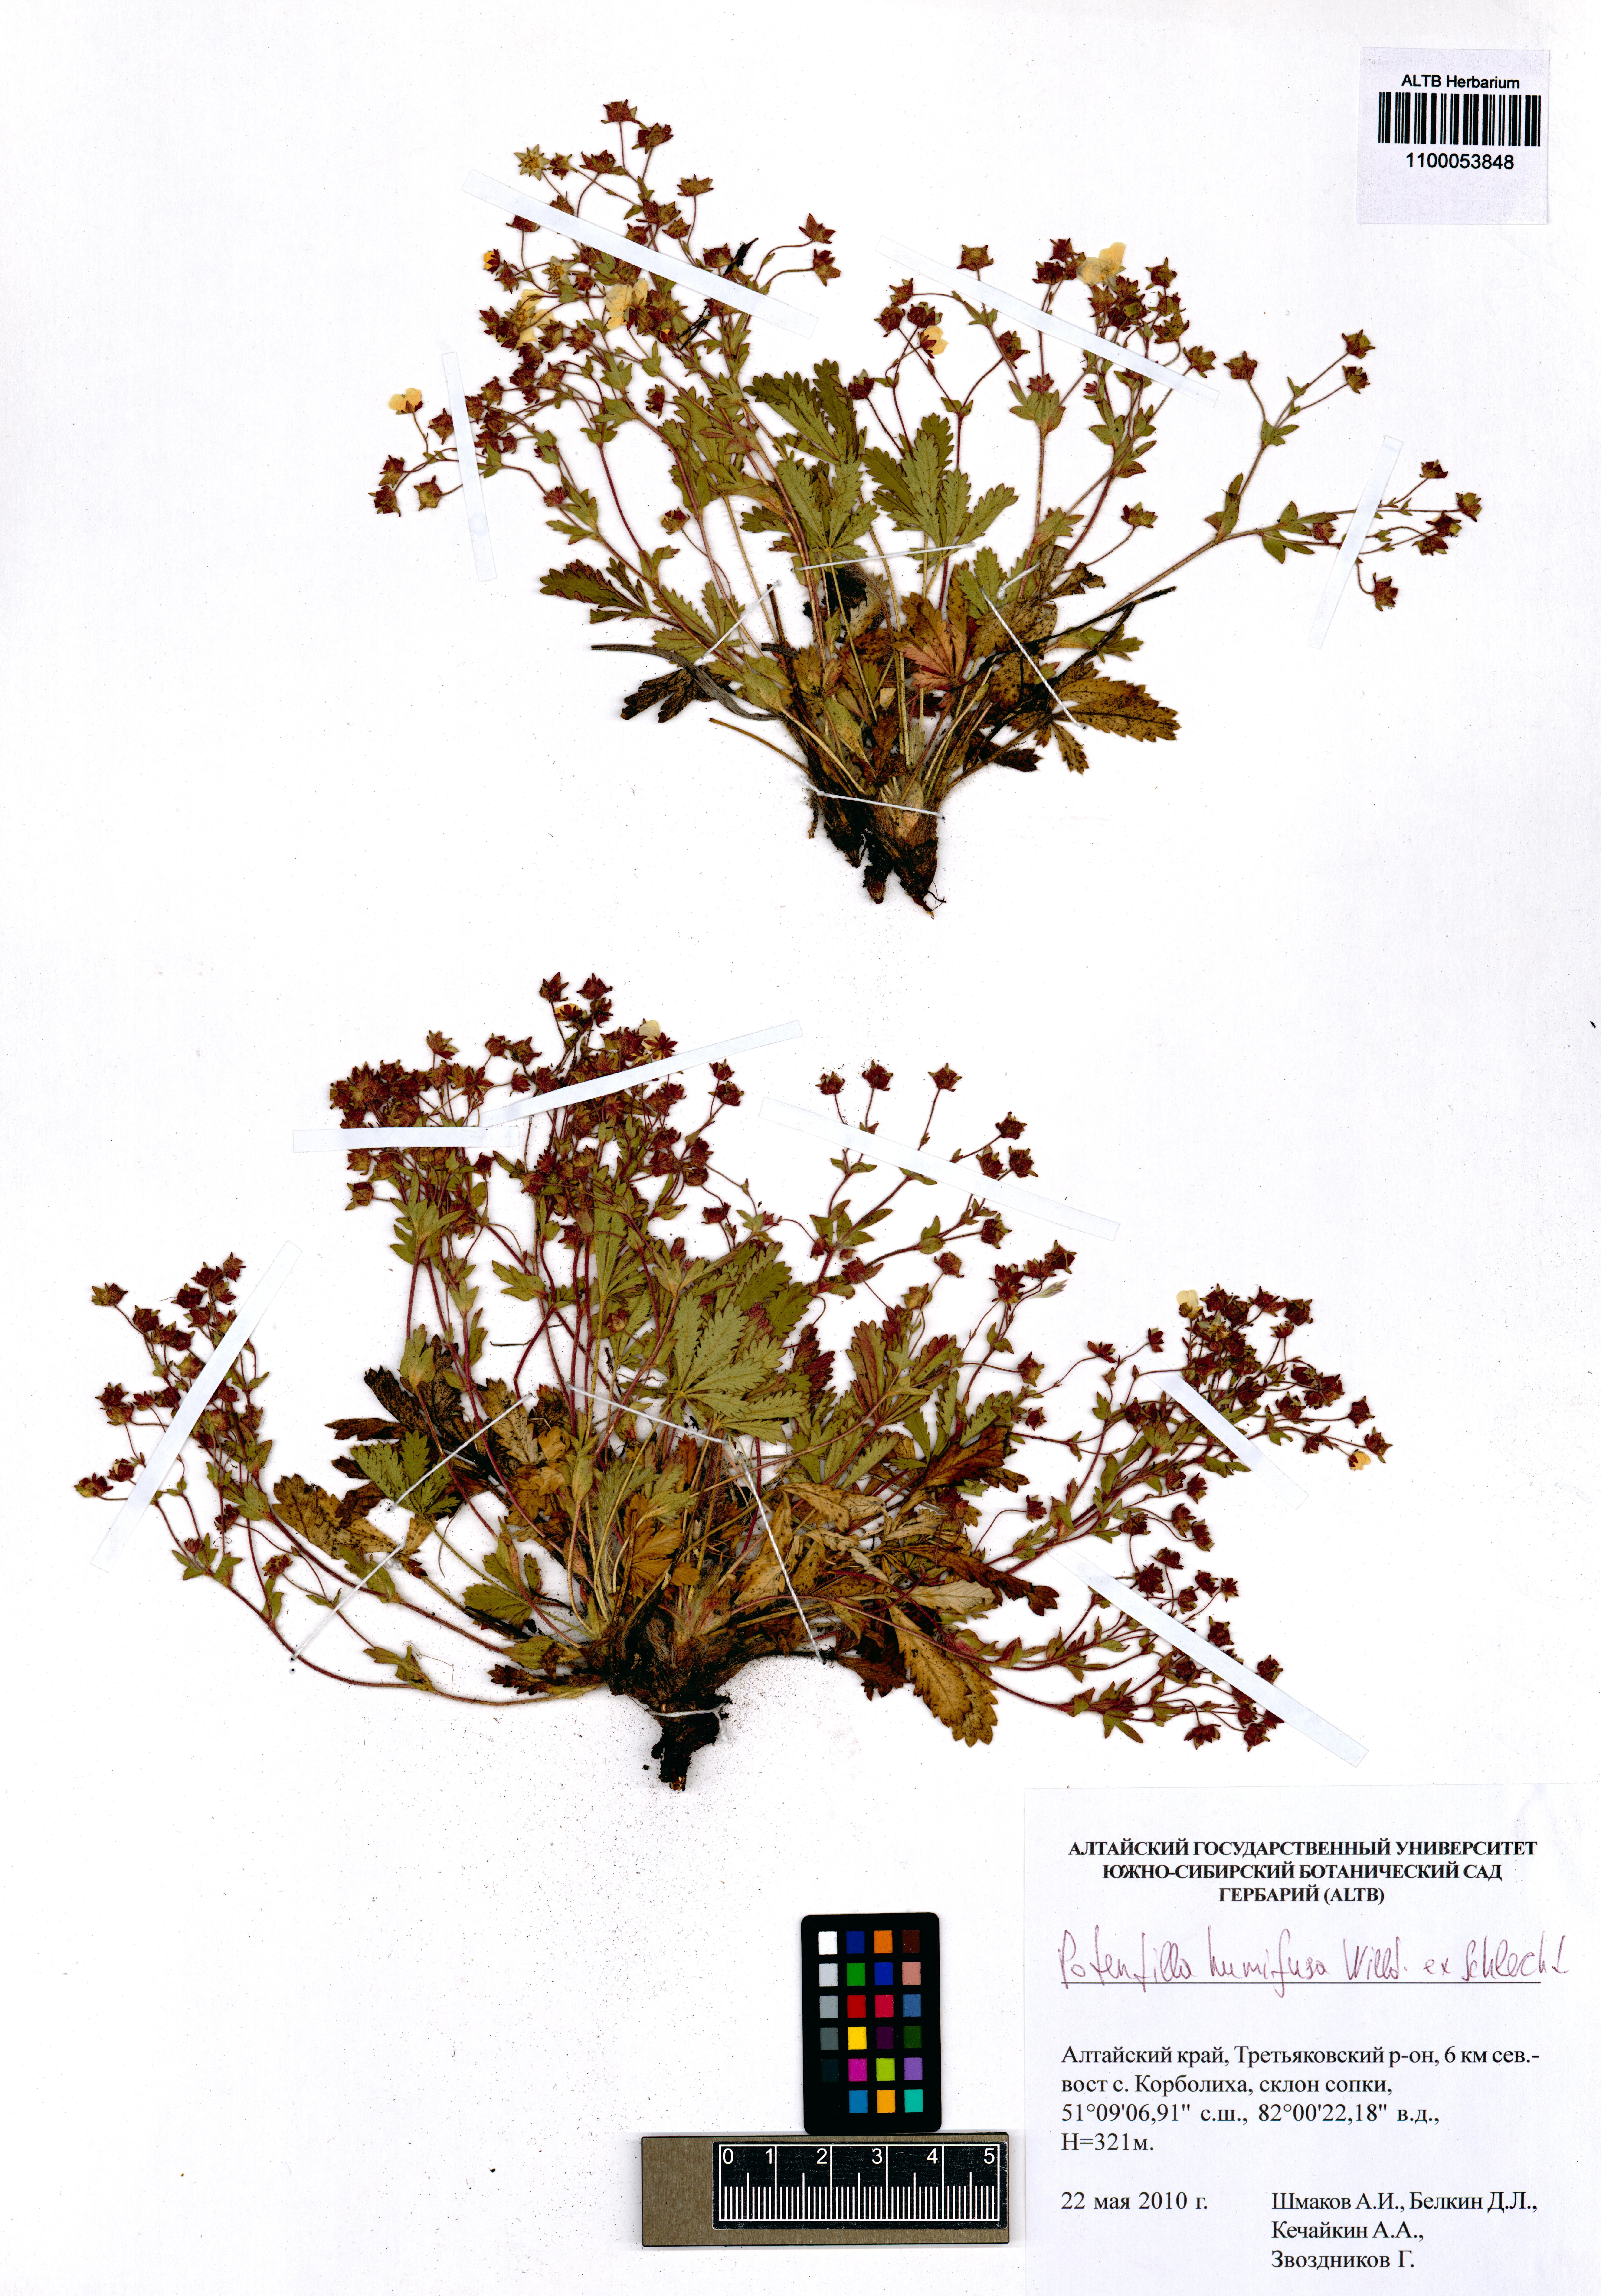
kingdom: Plantae
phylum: Tracheophyta
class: Magnoliopsida
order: Rosales
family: Rosaceae
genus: Potentilla
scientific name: Potentilla humifusa
